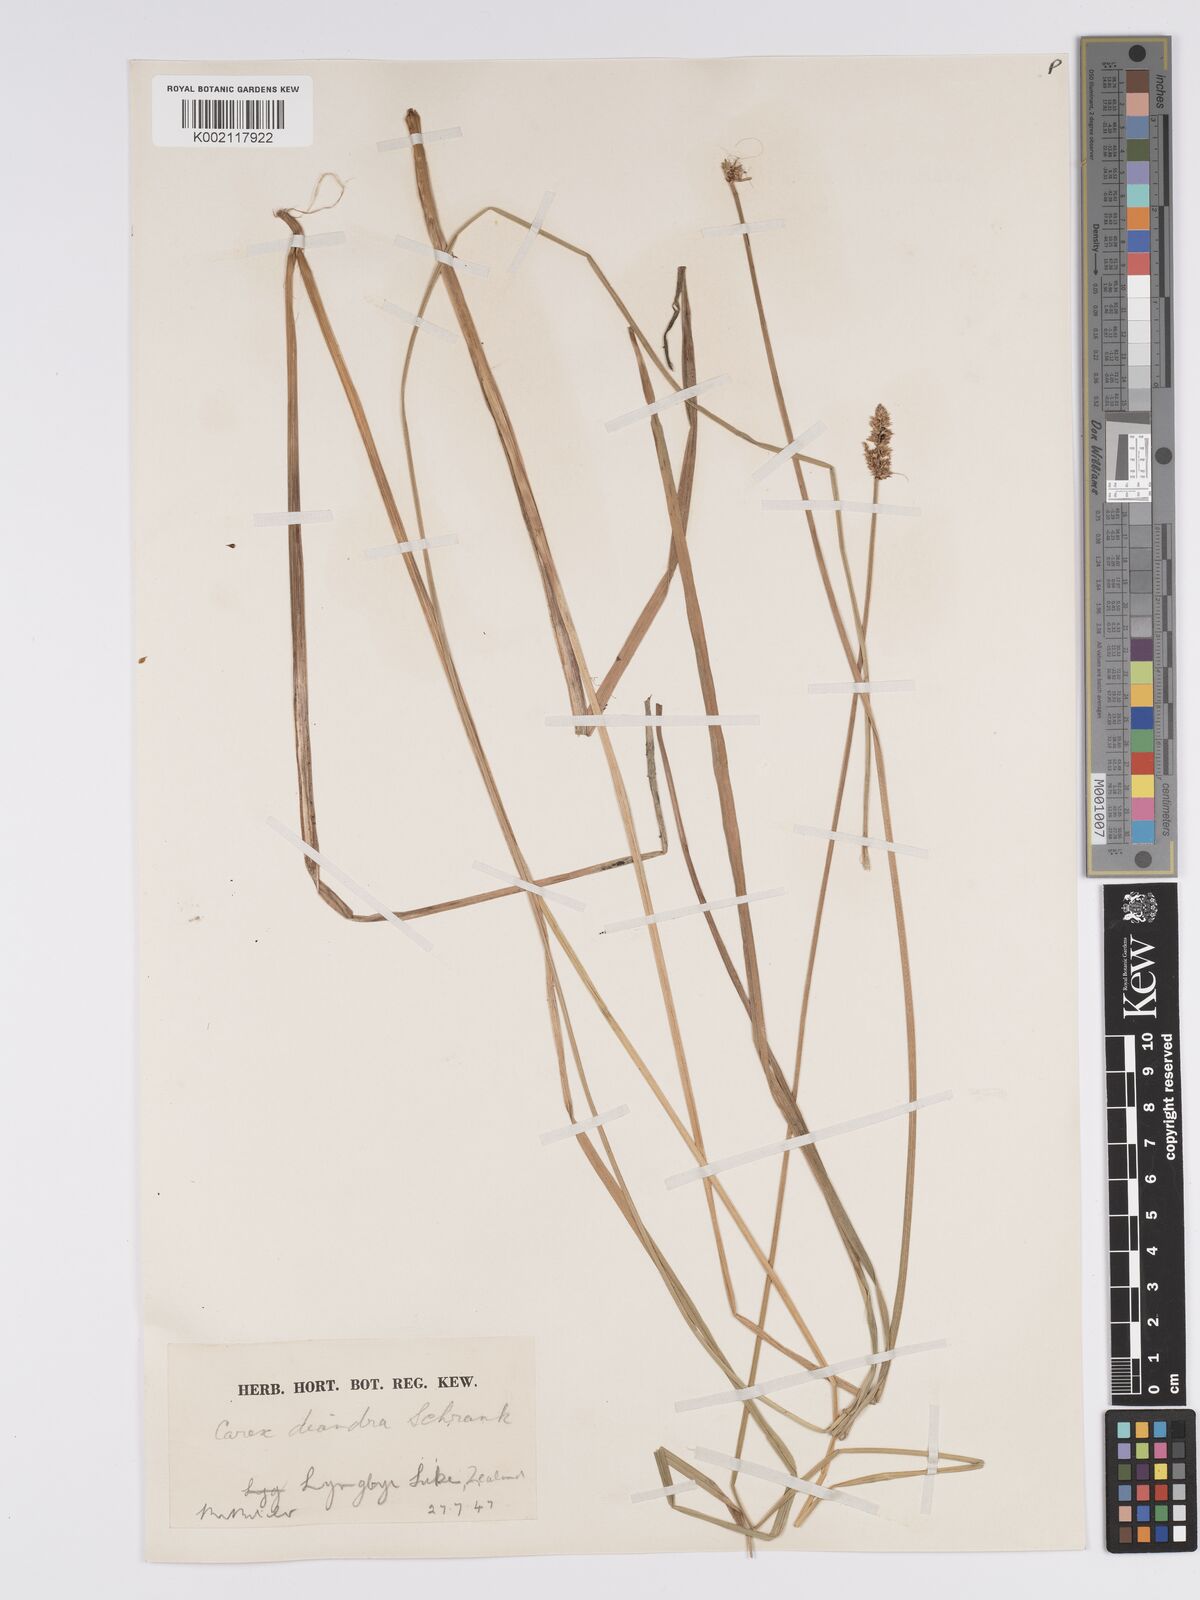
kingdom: Plantae
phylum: Tracheophyta
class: Liliopsida
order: Poales
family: Cyperaceae
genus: Carex
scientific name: Carex diandra
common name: Lesser tussock-sedge
